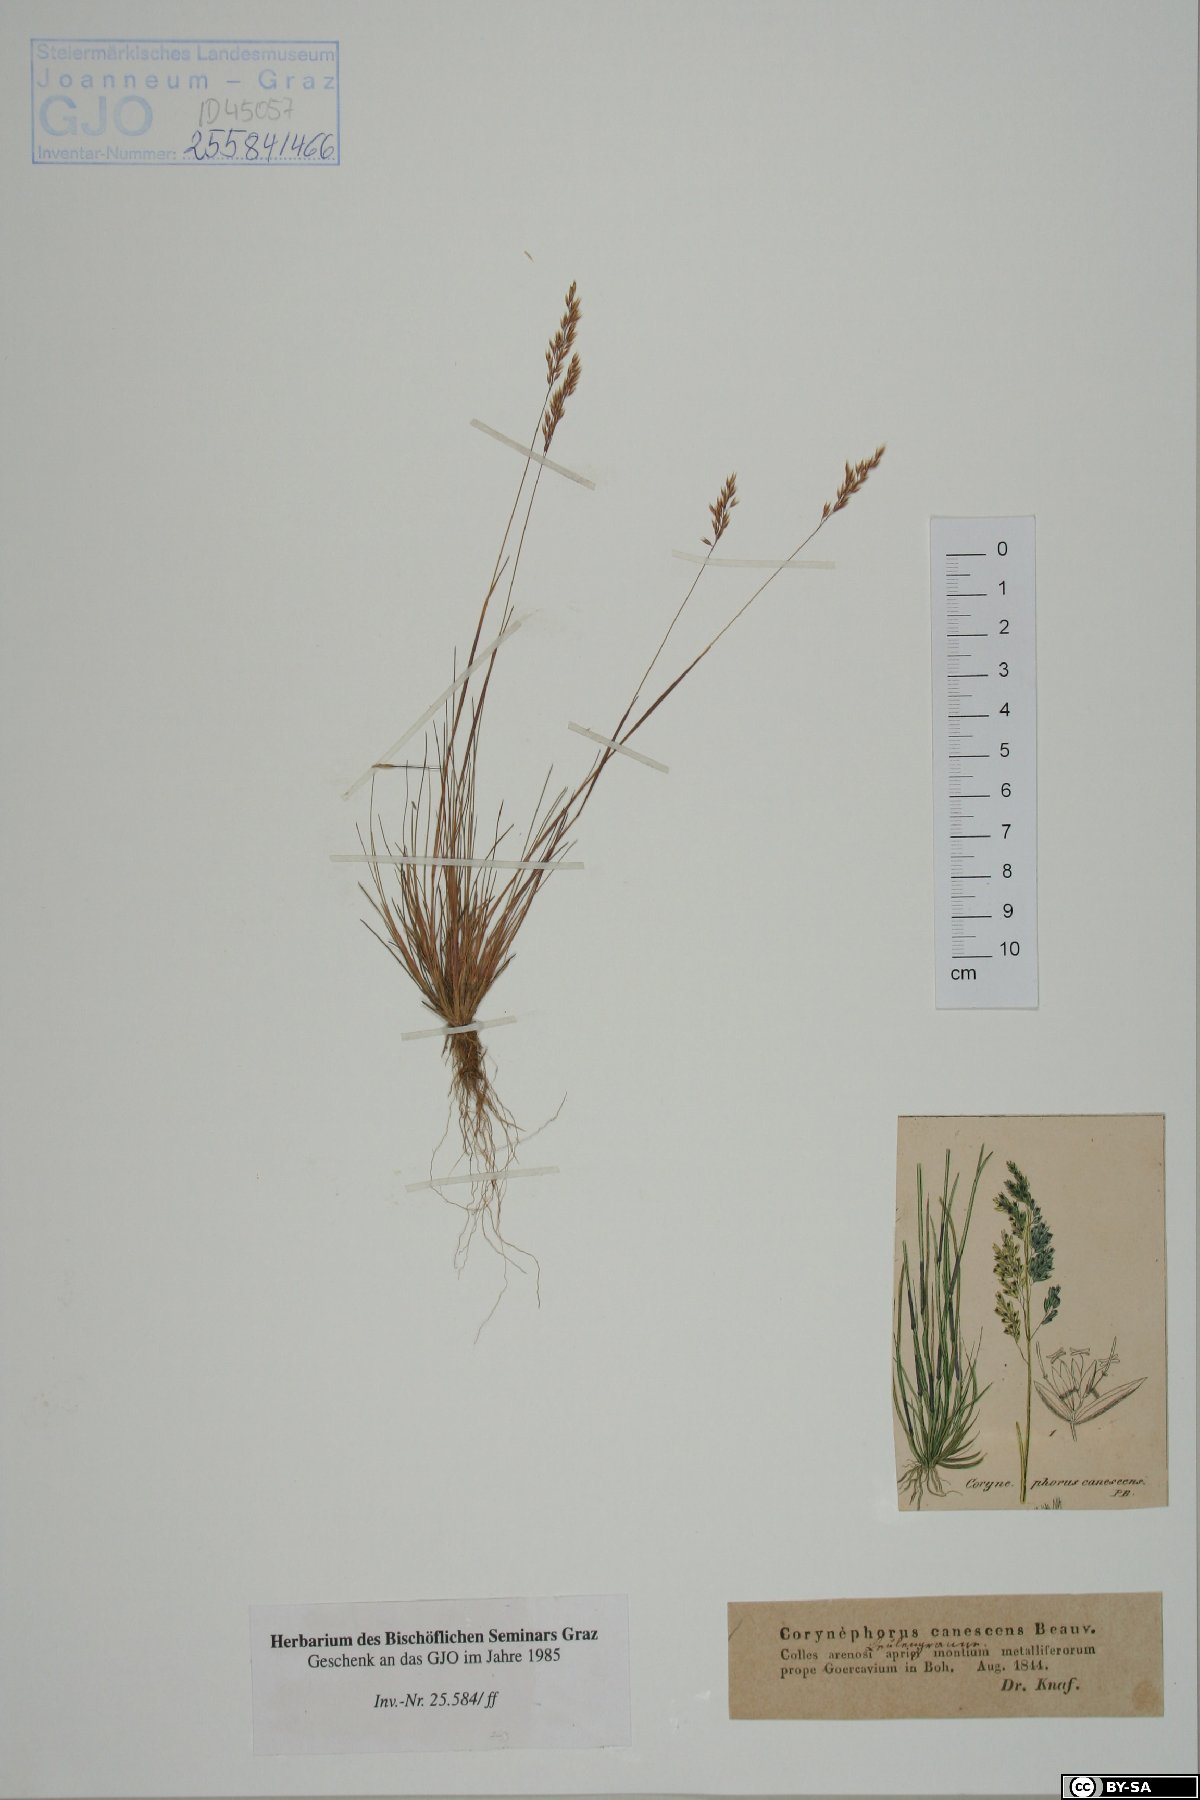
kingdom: Plantae
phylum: Tracheophyta
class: Liliopsida
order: Poales
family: Poaceae
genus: Corynephorus
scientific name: Corynephorus canescens
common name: Grey hair-grass
